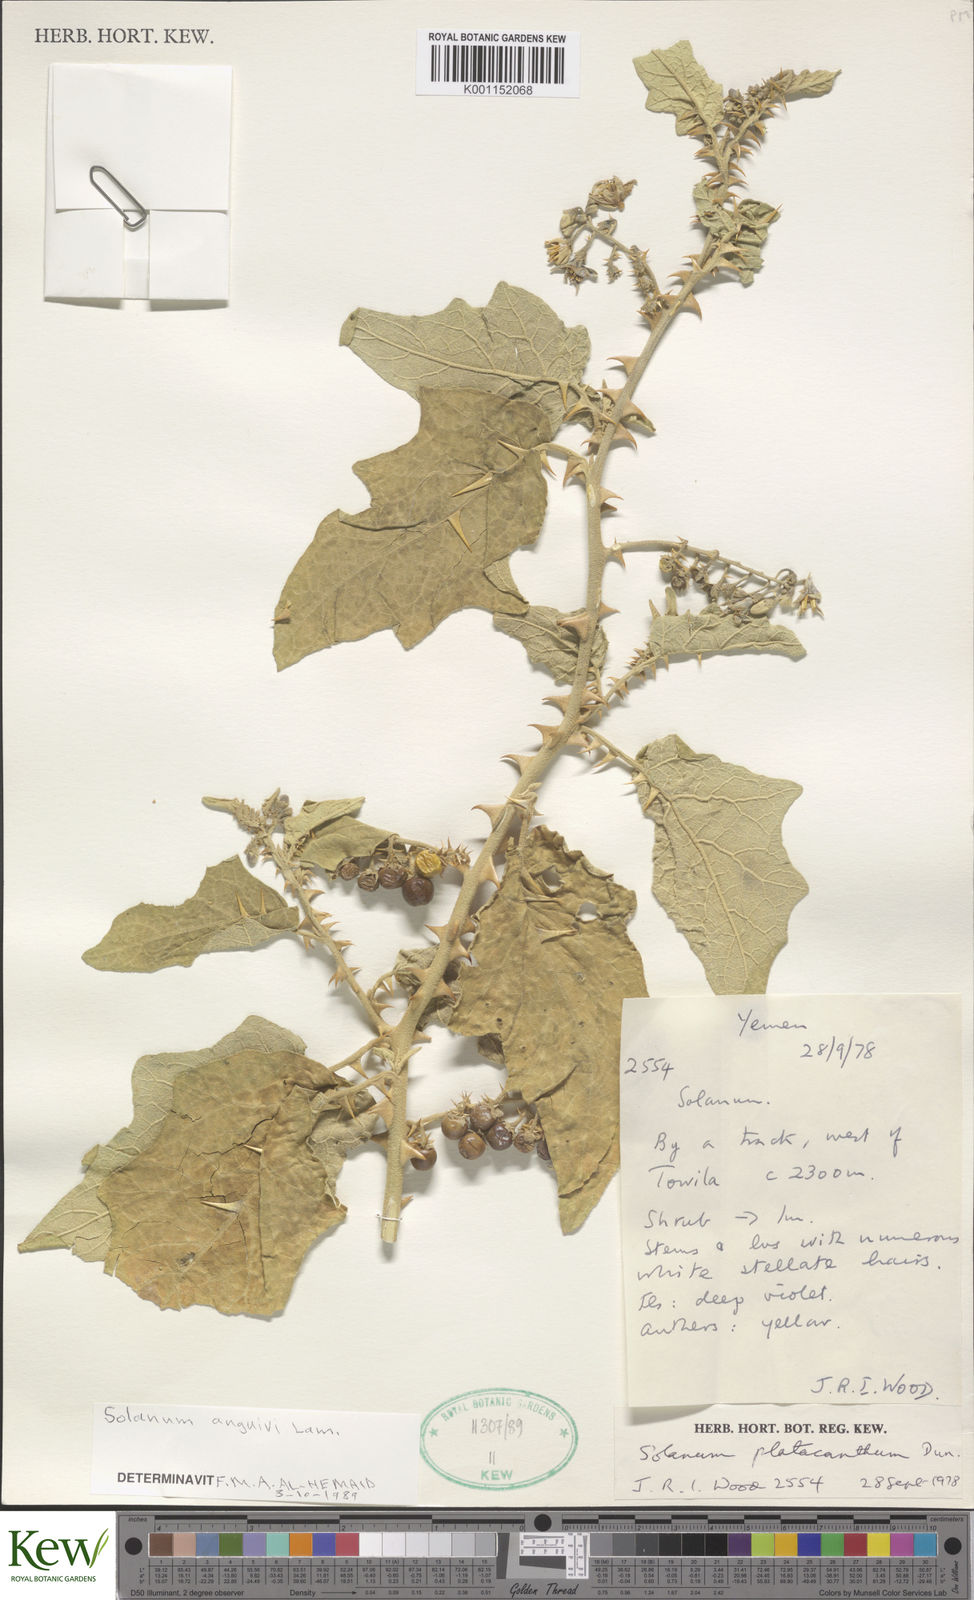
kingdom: Plantae
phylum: Tracheophyta
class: Magnoliopsida
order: Solanales
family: Solanaceae
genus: Solanum
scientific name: Solanum anguivi
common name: Forest bitterberry
